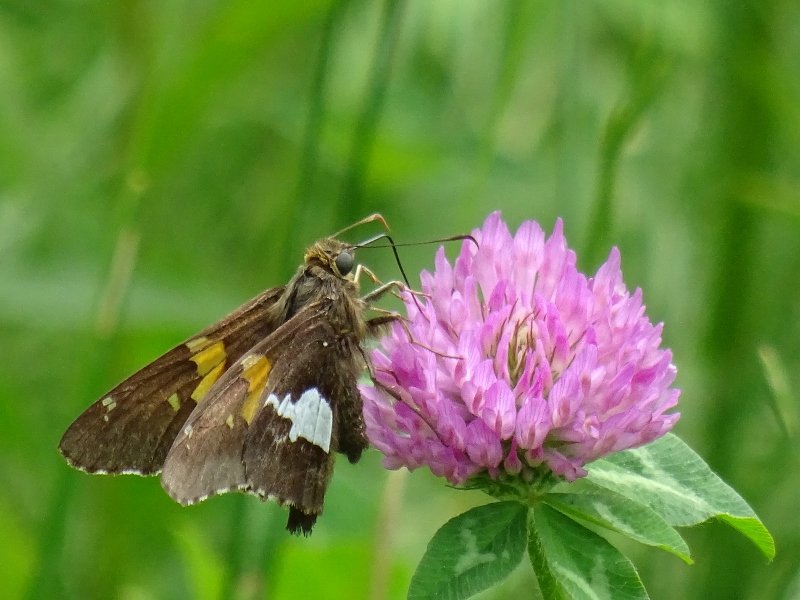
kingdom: Animalia
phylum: Arthropoda
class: Insecta
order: Lepidoptera
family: Hesperiidae
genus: Epargyreus
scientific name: Epargyreus clarus
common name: Silver-spotted Skipper
